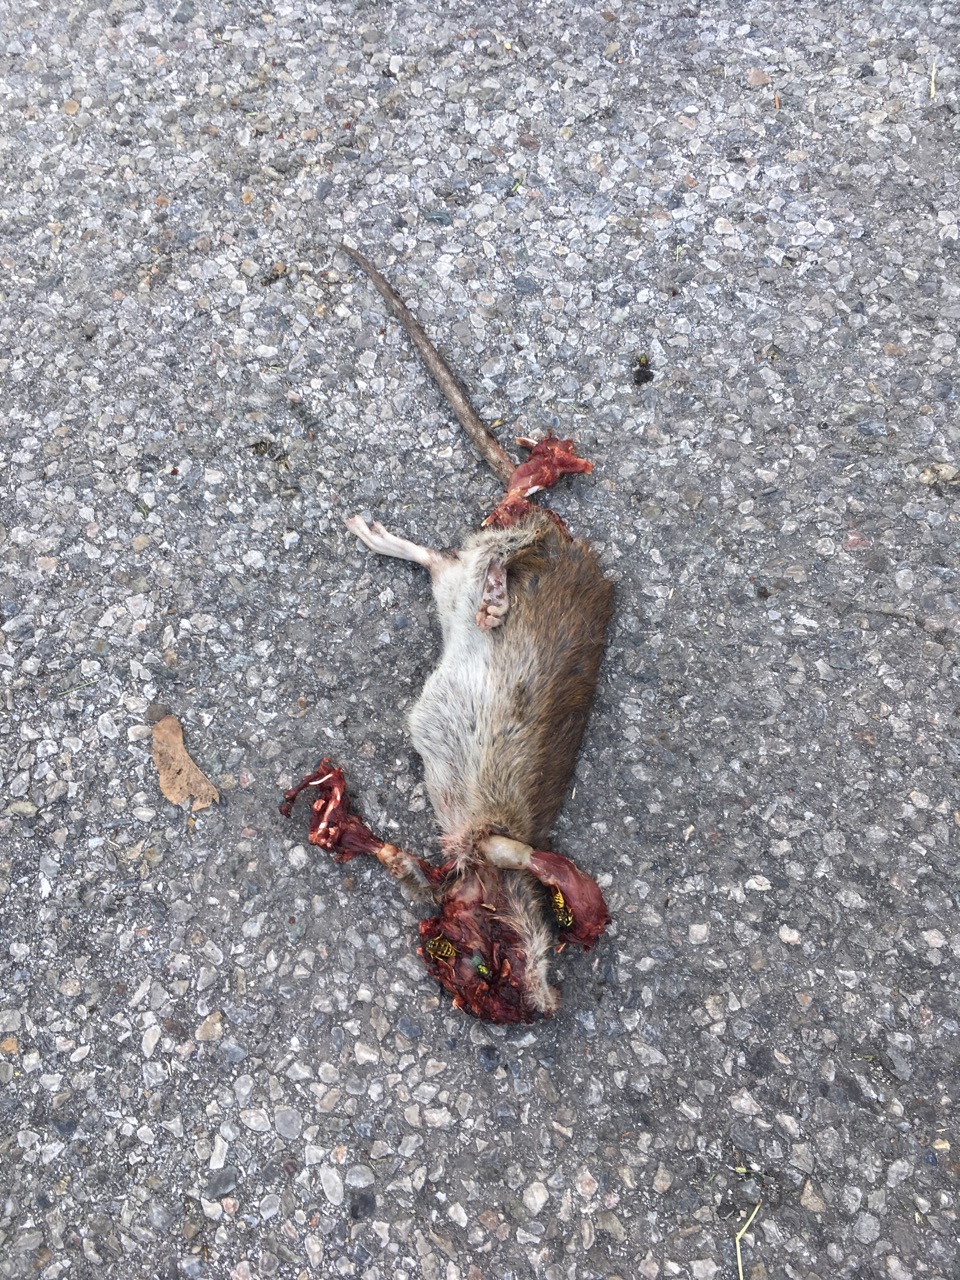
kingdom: Animalia
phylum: Chordata
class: Mammalia
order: Rodentia
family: Muridae
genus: Rattus
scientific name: Rattus norvegicus
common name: Brown rat
